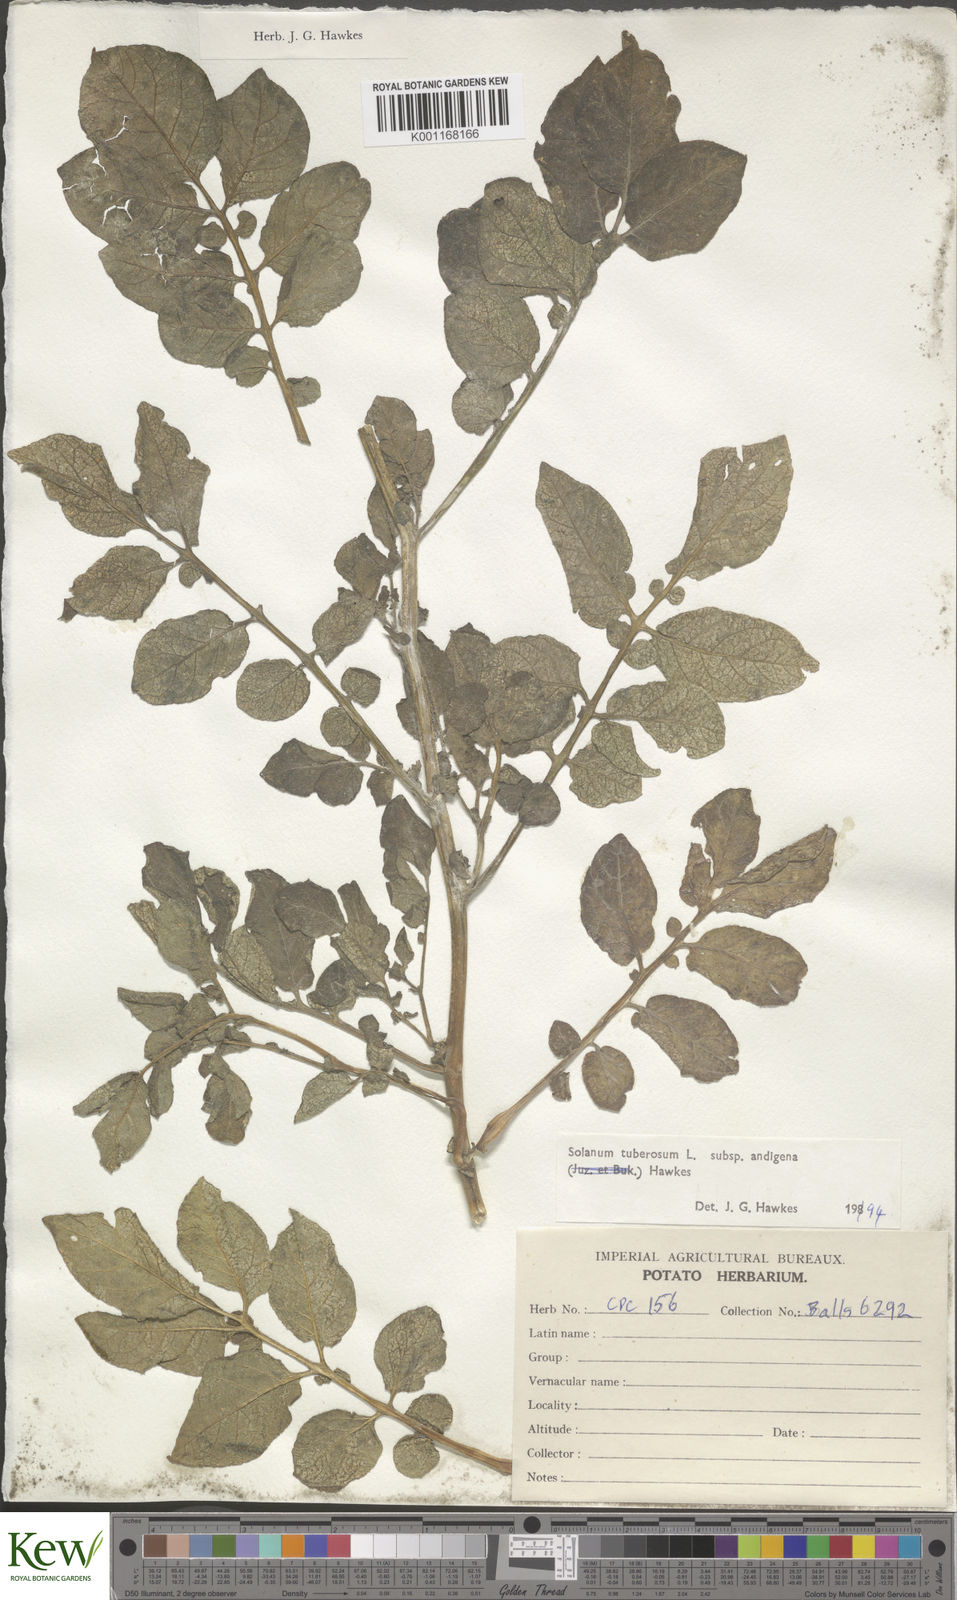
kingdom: Plantae
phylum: Tracheophyta
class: Magnoliopsida
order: Solanales
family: Solanaceae
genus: Solanum
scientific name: Solanum tuberosum
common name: Potato
